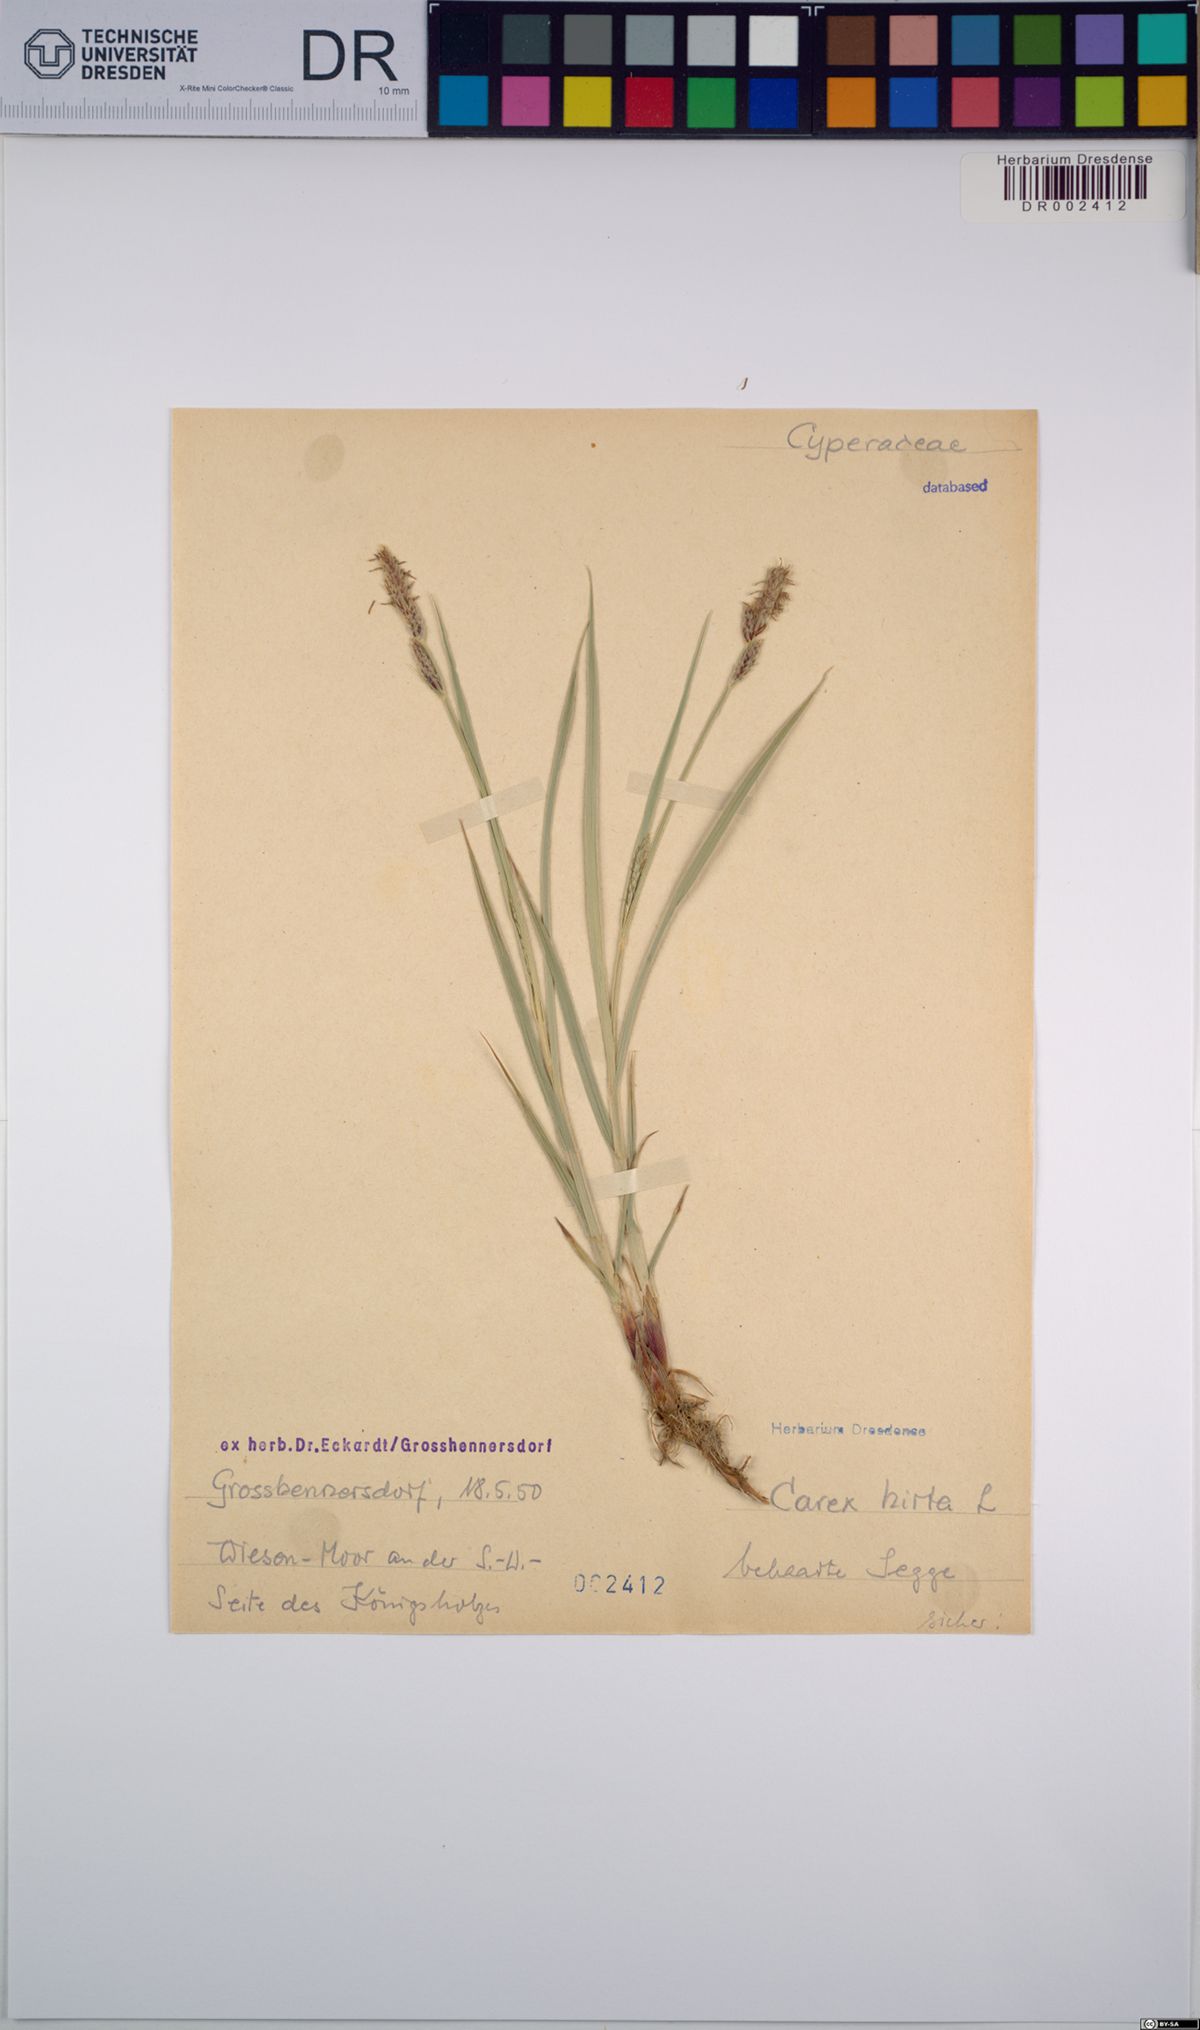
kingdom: Plantae
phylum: Tracheophyta
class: Liliopsida
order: Poales
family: Cyperaceae
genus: Carex
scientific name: Carex hirta
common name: Hairy sedge
